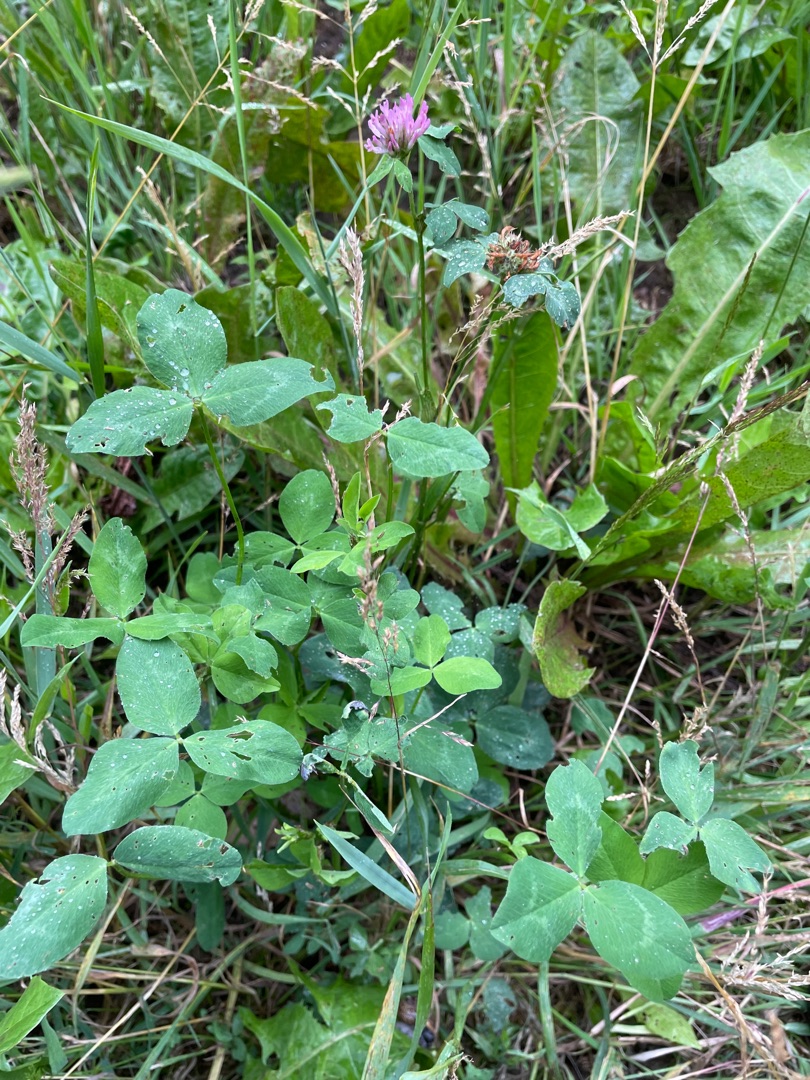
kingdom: Plantae
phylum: Tracheophyta
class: Magnoliopsida
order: Fabales
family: Fabaceae
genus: Trifolium
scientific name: Trifolium pratense
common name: Rød-kløver
